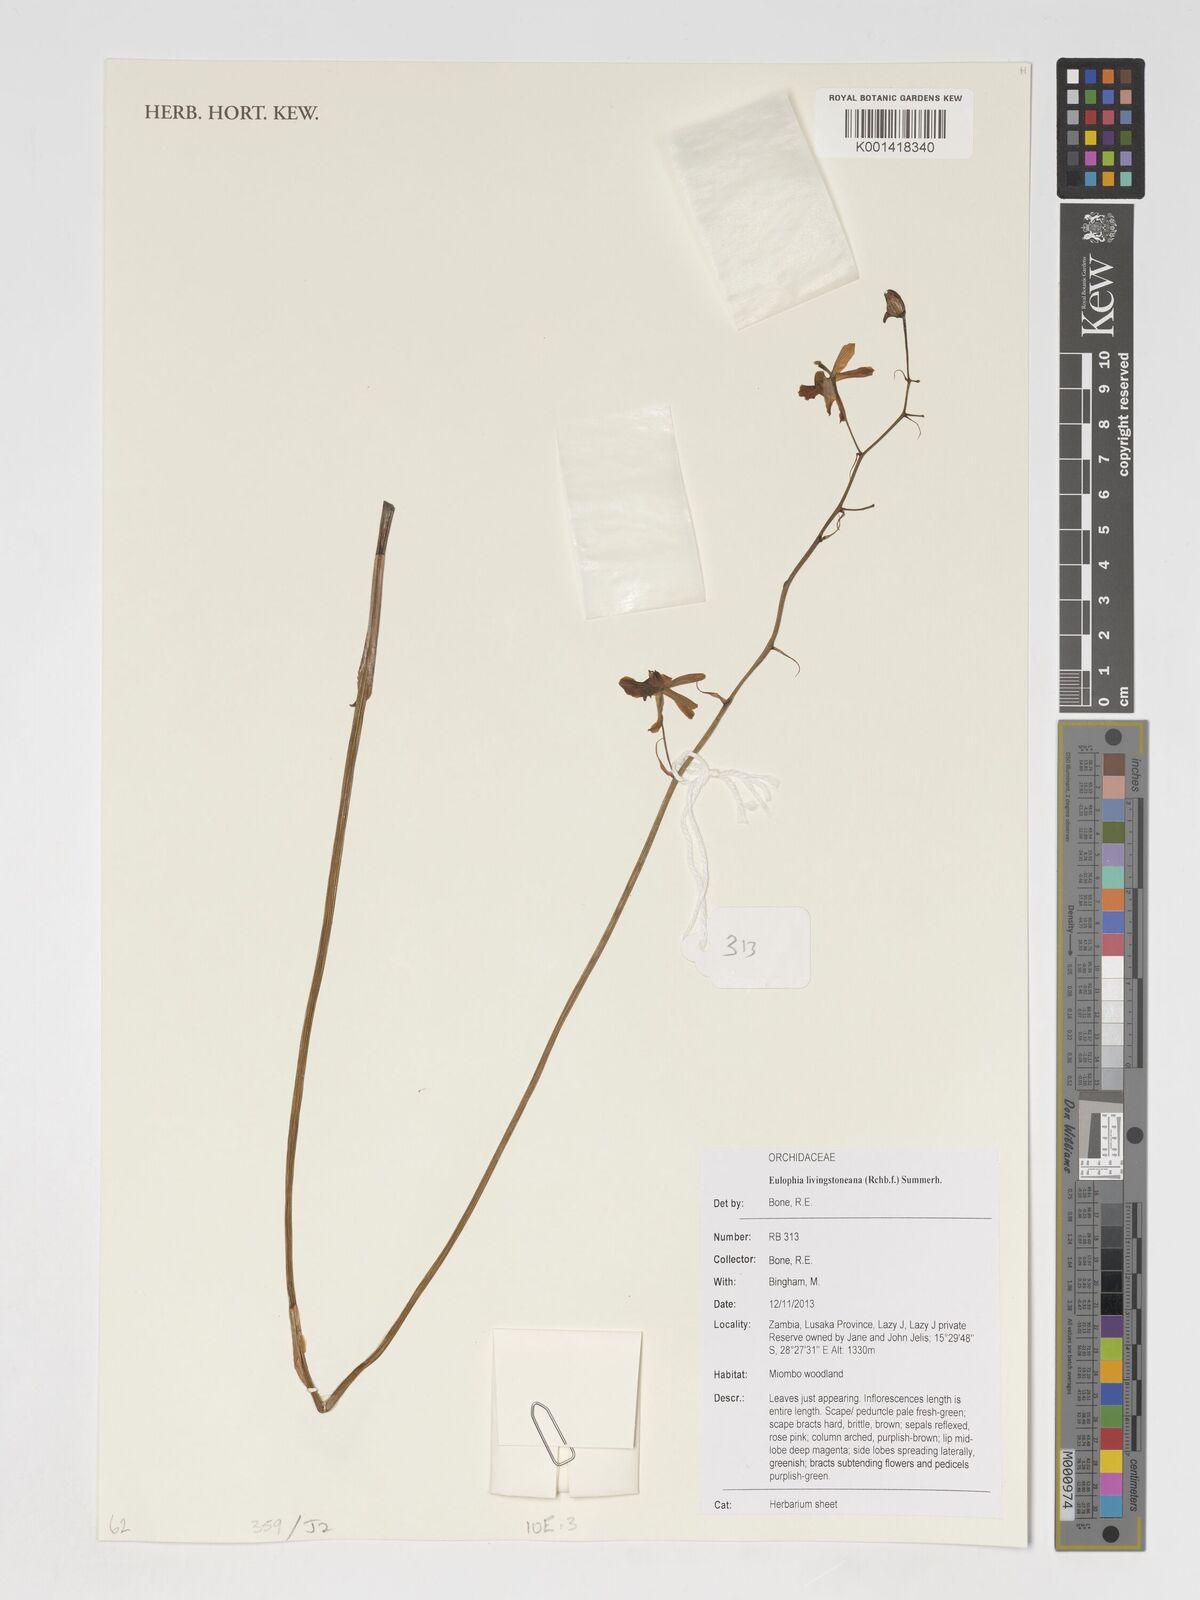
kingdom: Plantae
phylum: Tracheophyta
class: Liliopsida
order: Asparagales
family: Orchidaceae
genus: Eulophia
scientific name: Eulophia livingstoneana
